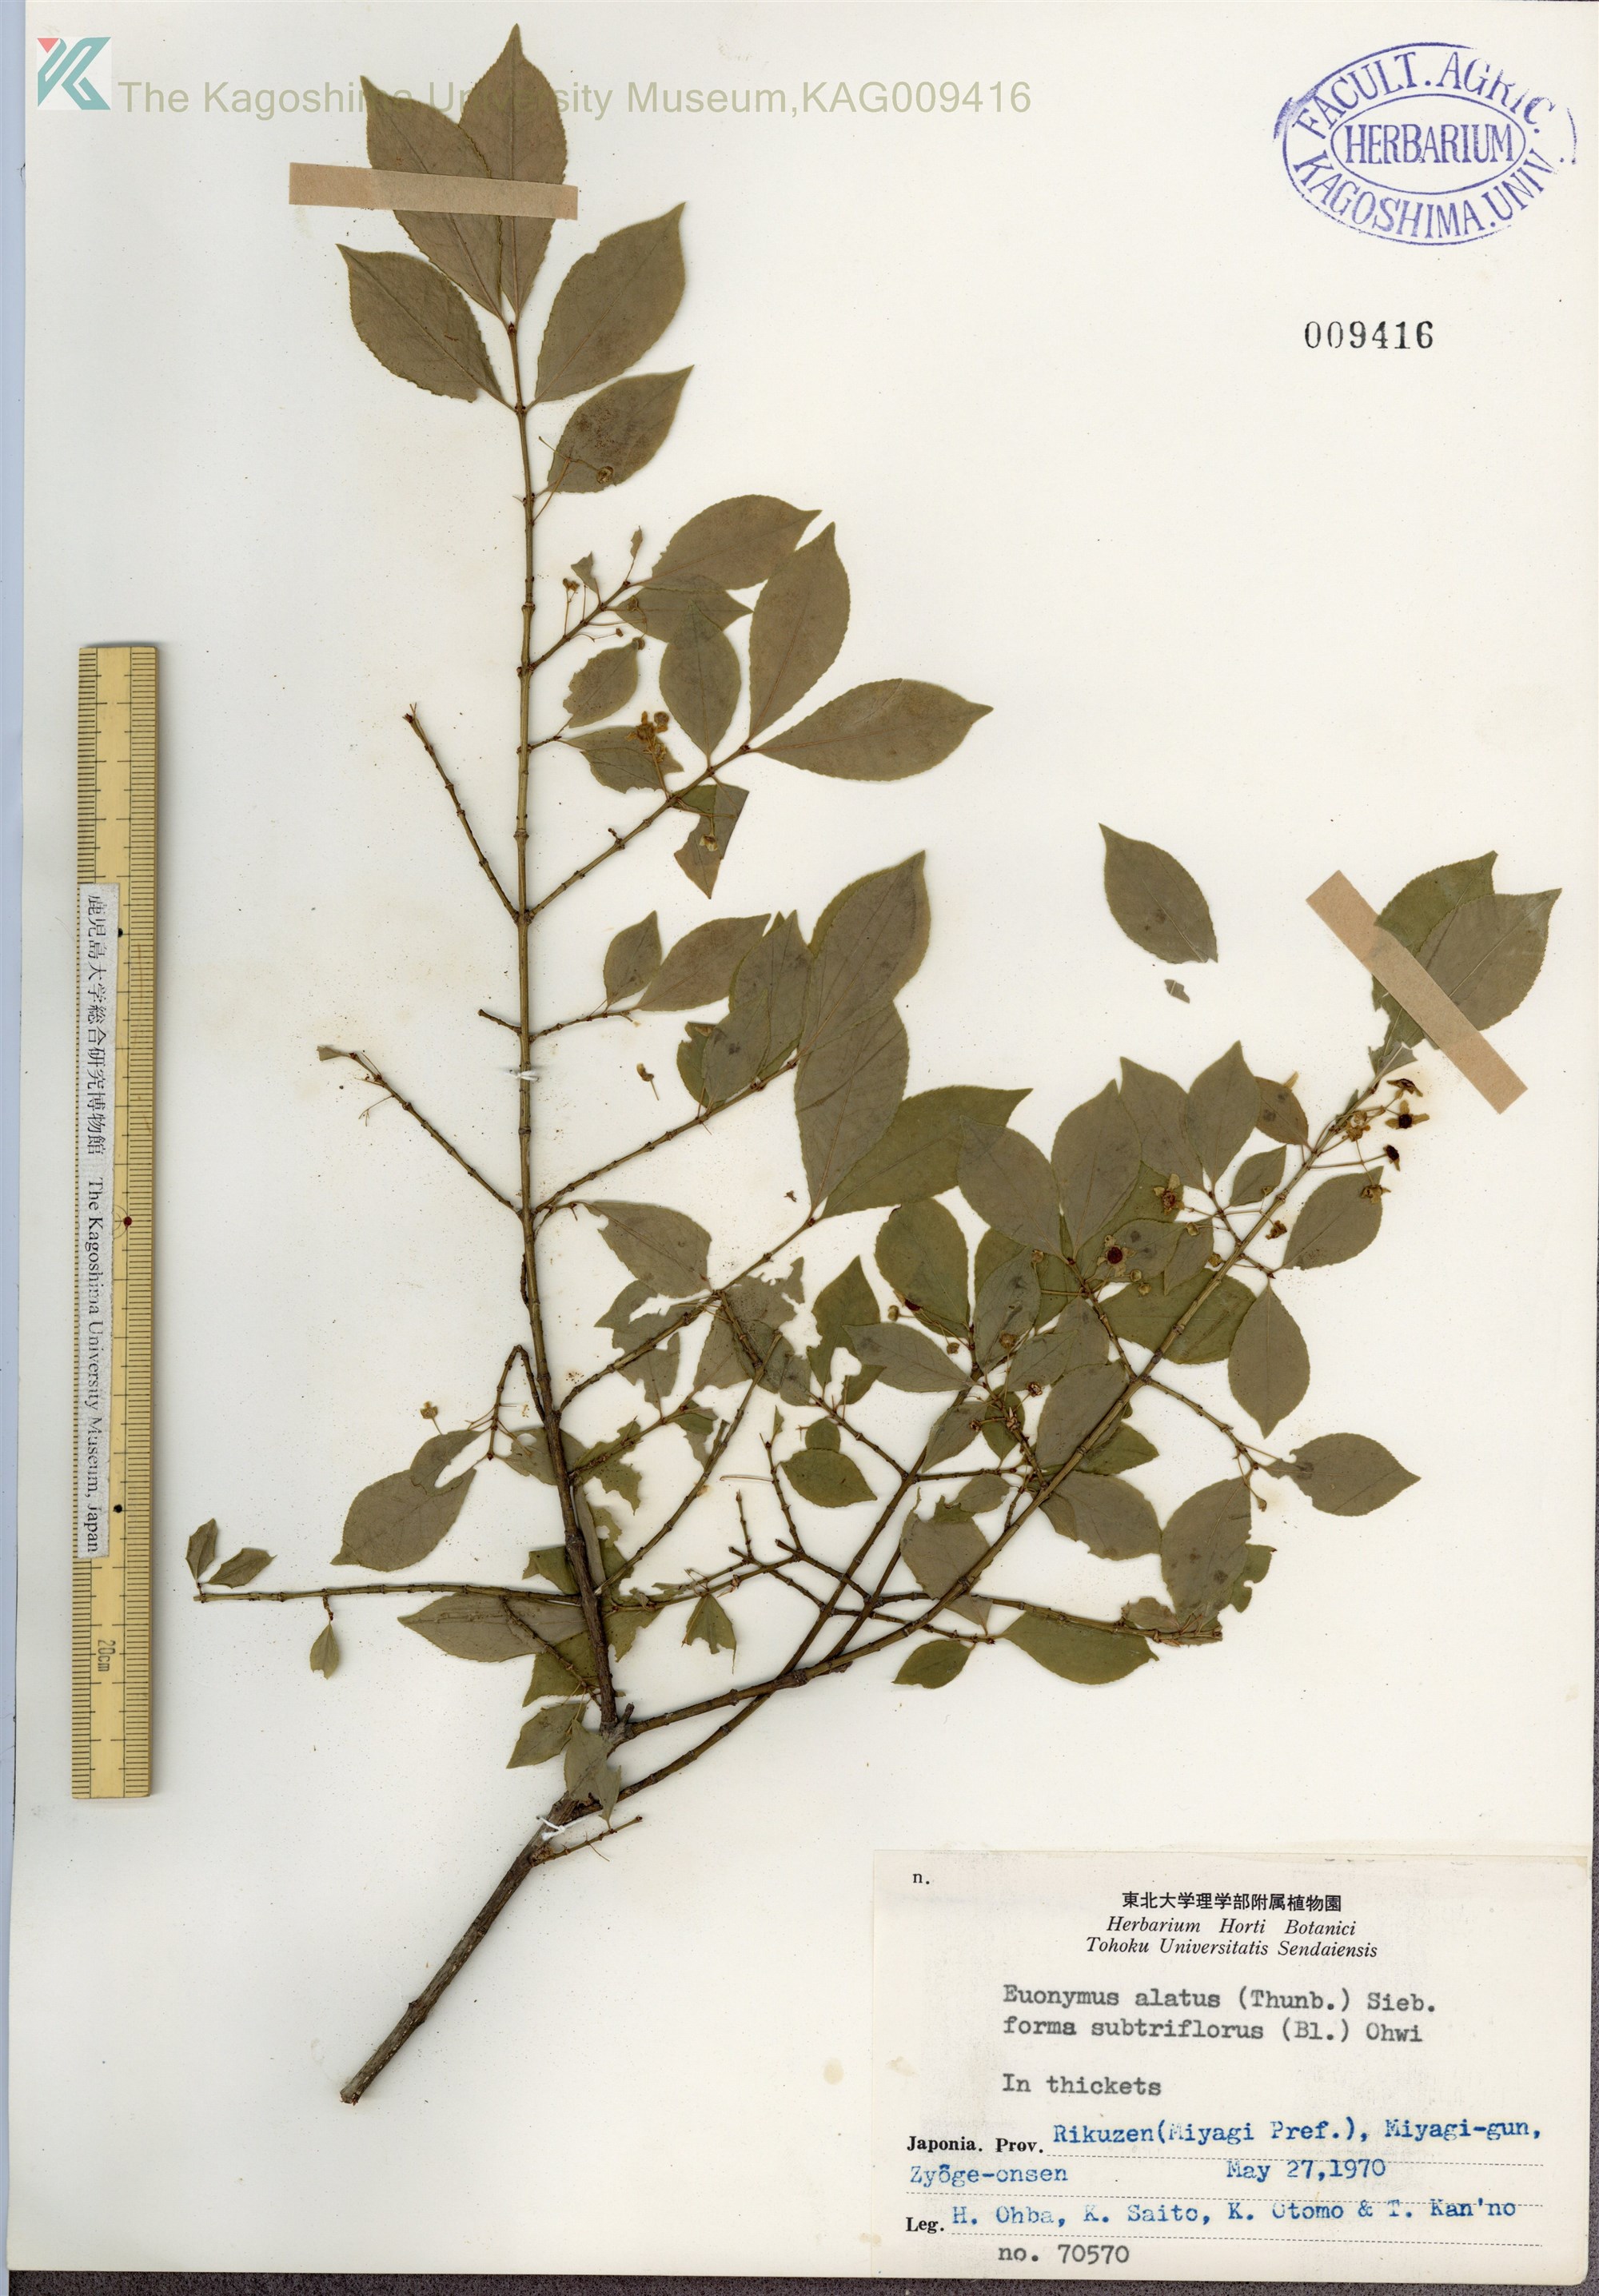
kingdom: Plantae
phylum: Tracheophyta
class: Magnoliopsida
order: Celastrales
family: Celastraceae
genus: Euonymus
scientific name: Euonymus alatus
